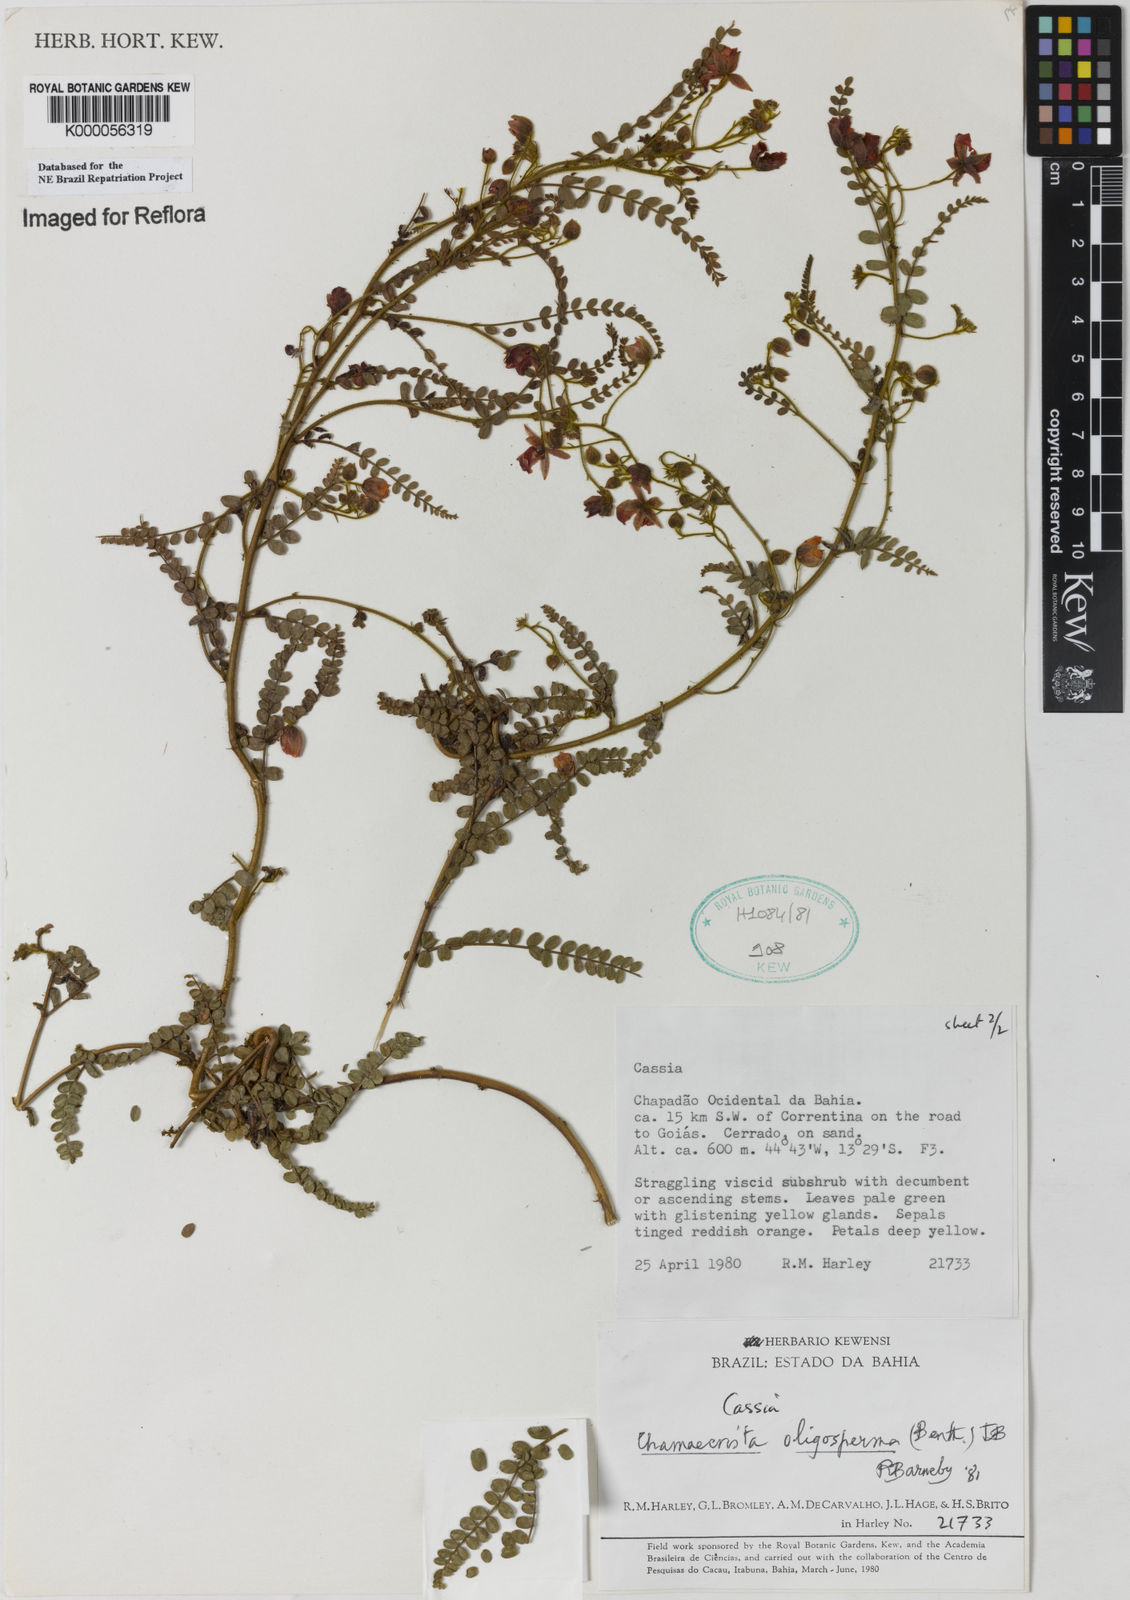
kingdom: Plantae
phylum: Tracheophyta
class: Magnoliopsida
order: Fabales
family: Fabaceae
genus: Chamaecrista
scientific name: Chamaecrista oligosperma
